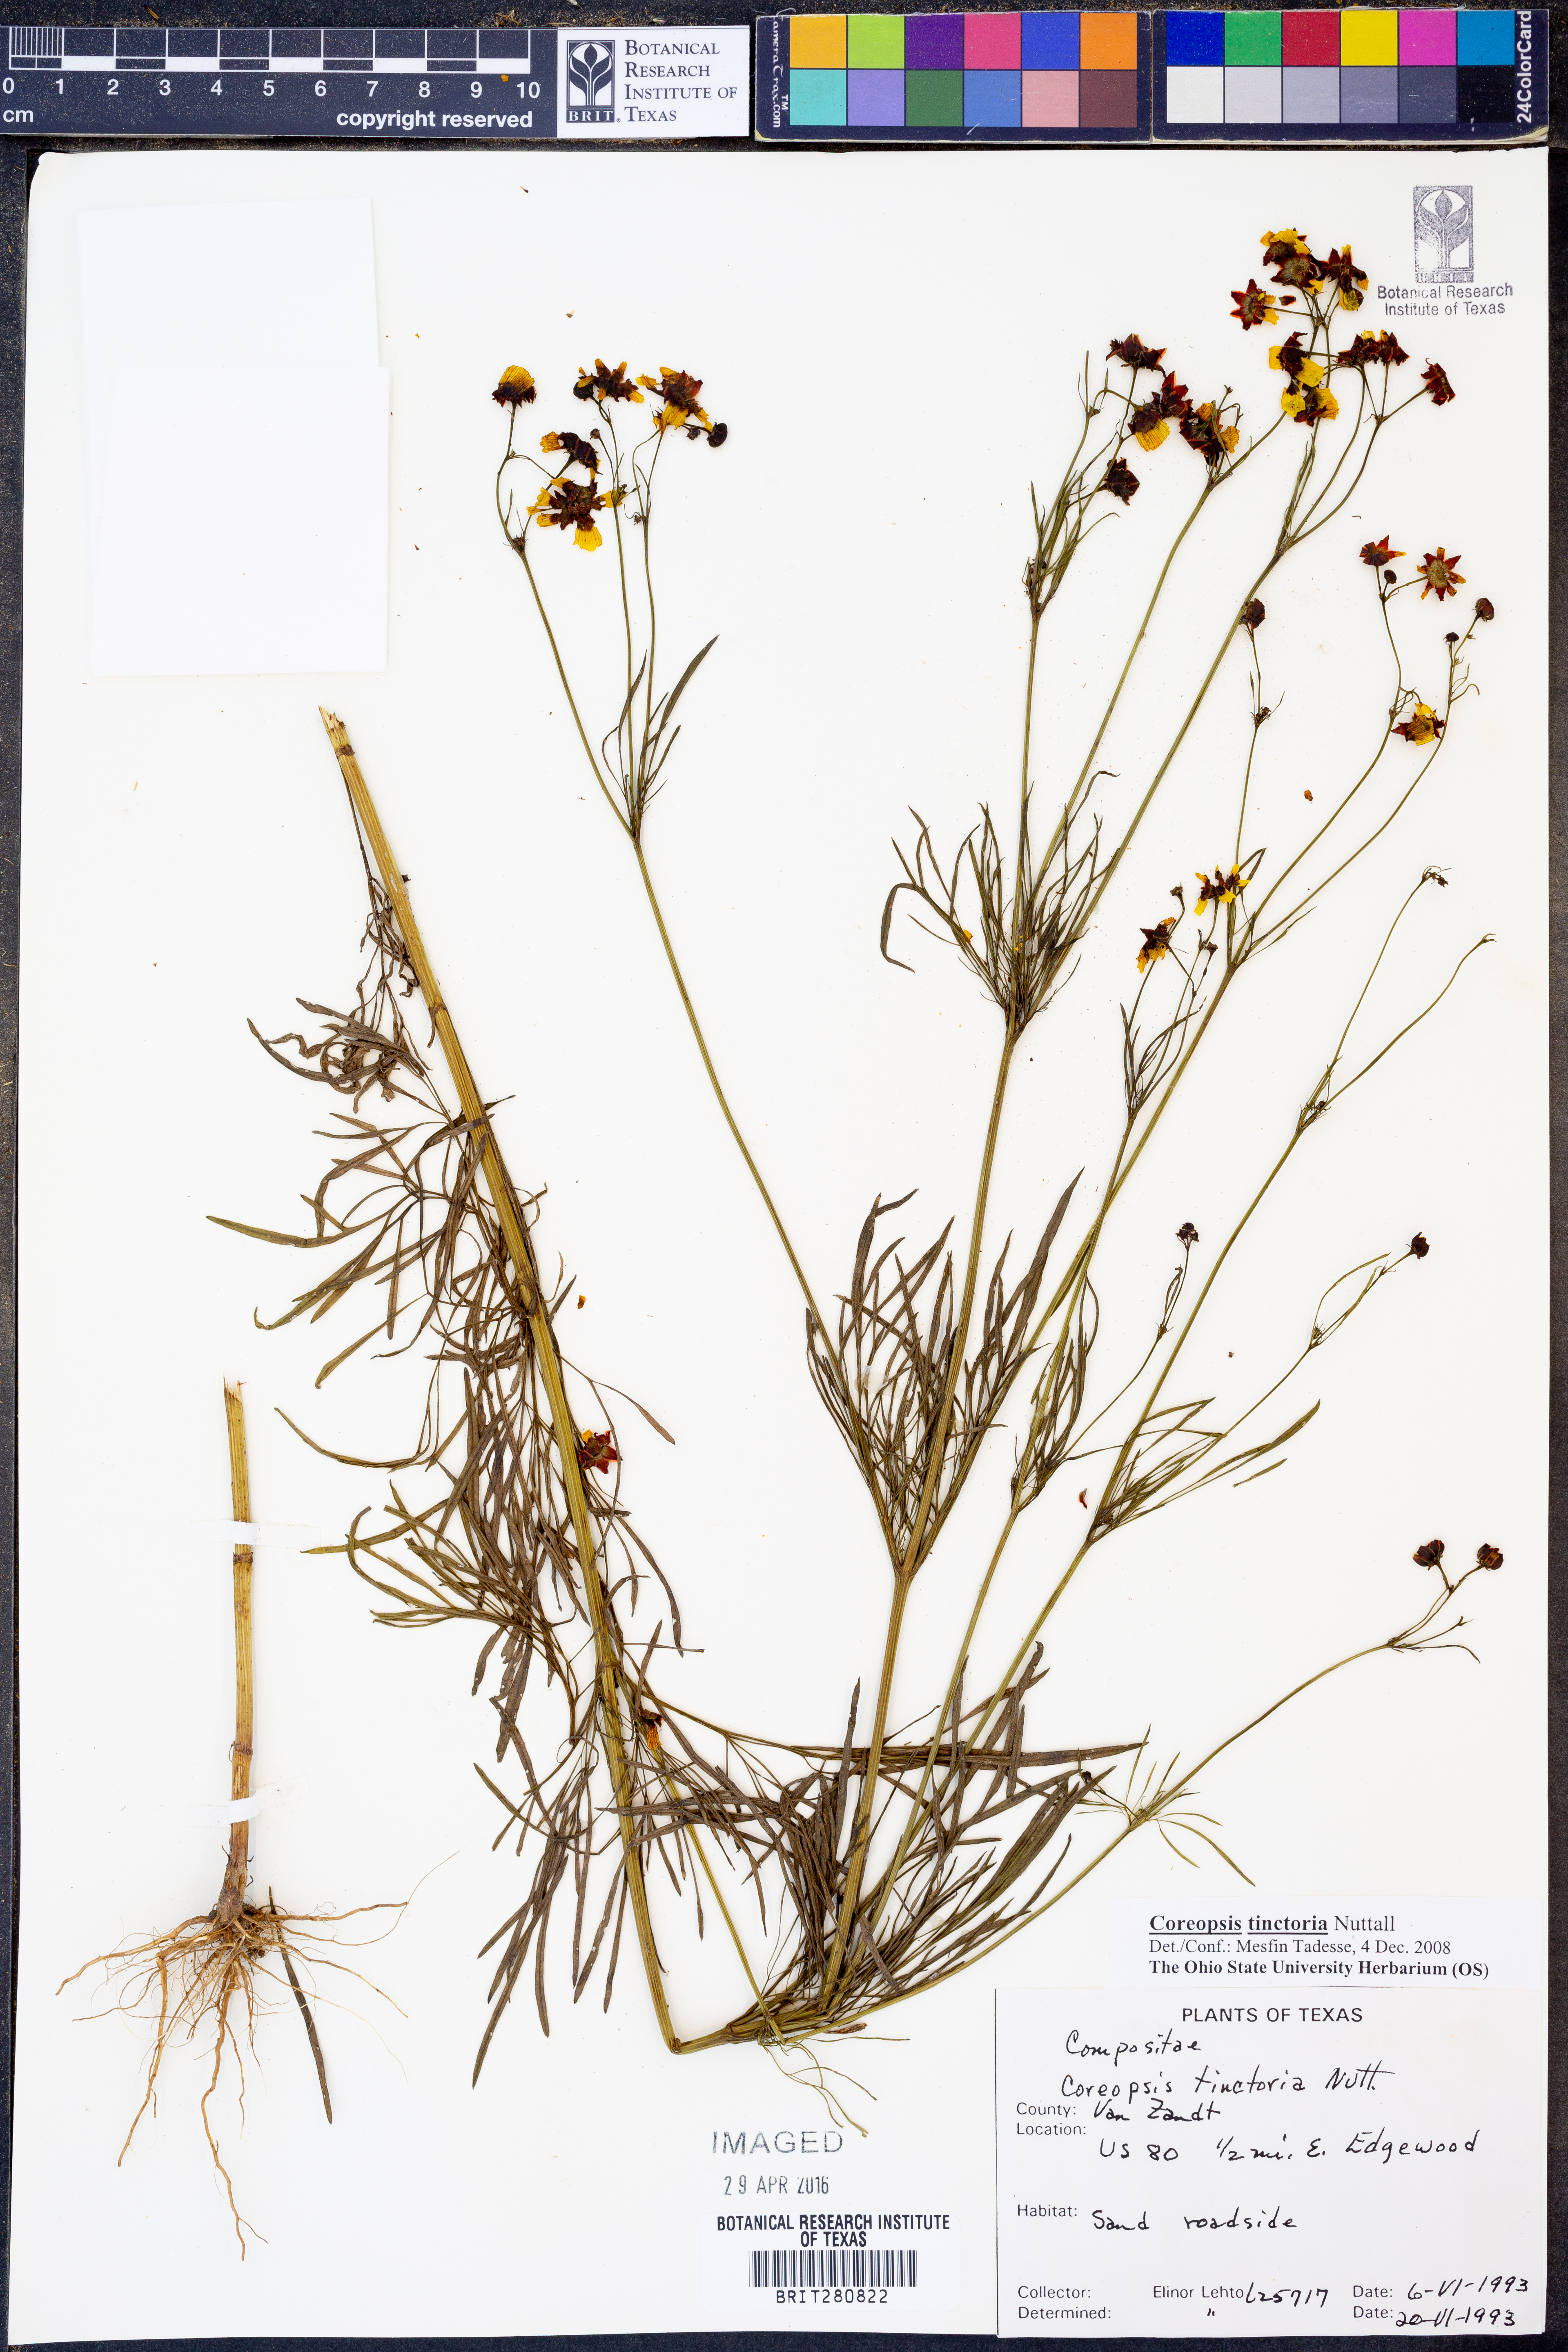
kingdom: Plantae
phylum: Tracheophyta
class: Magnoliopsida
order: Asterales
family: Asteraceae
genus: Coreopsis
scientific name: Coreopsis tinctoria
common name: Garden tickseed
